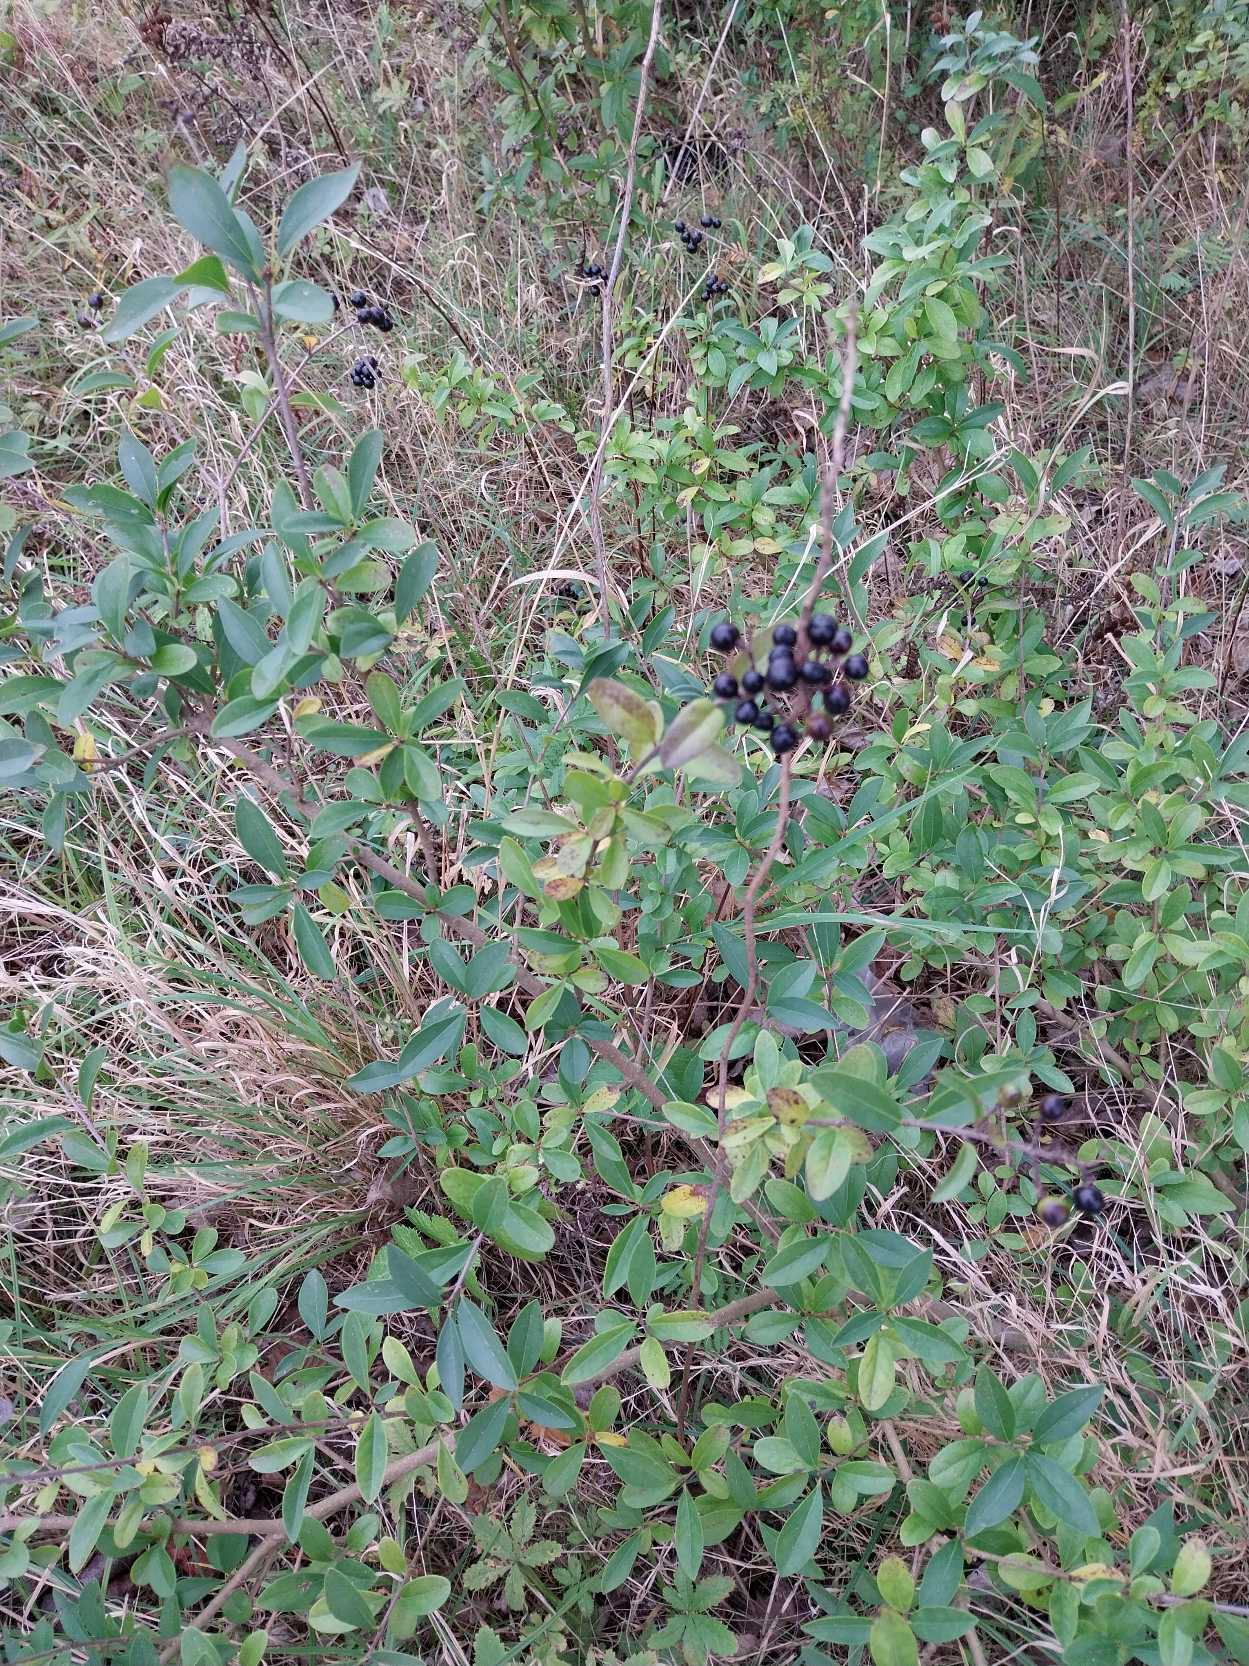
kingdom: Plantae
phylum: Tracheophyta
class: Magnoliopsida
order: Lamiales
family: Oleaceae
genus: Ligustrum
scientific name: Ligustrum vulgare
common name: Liguster
